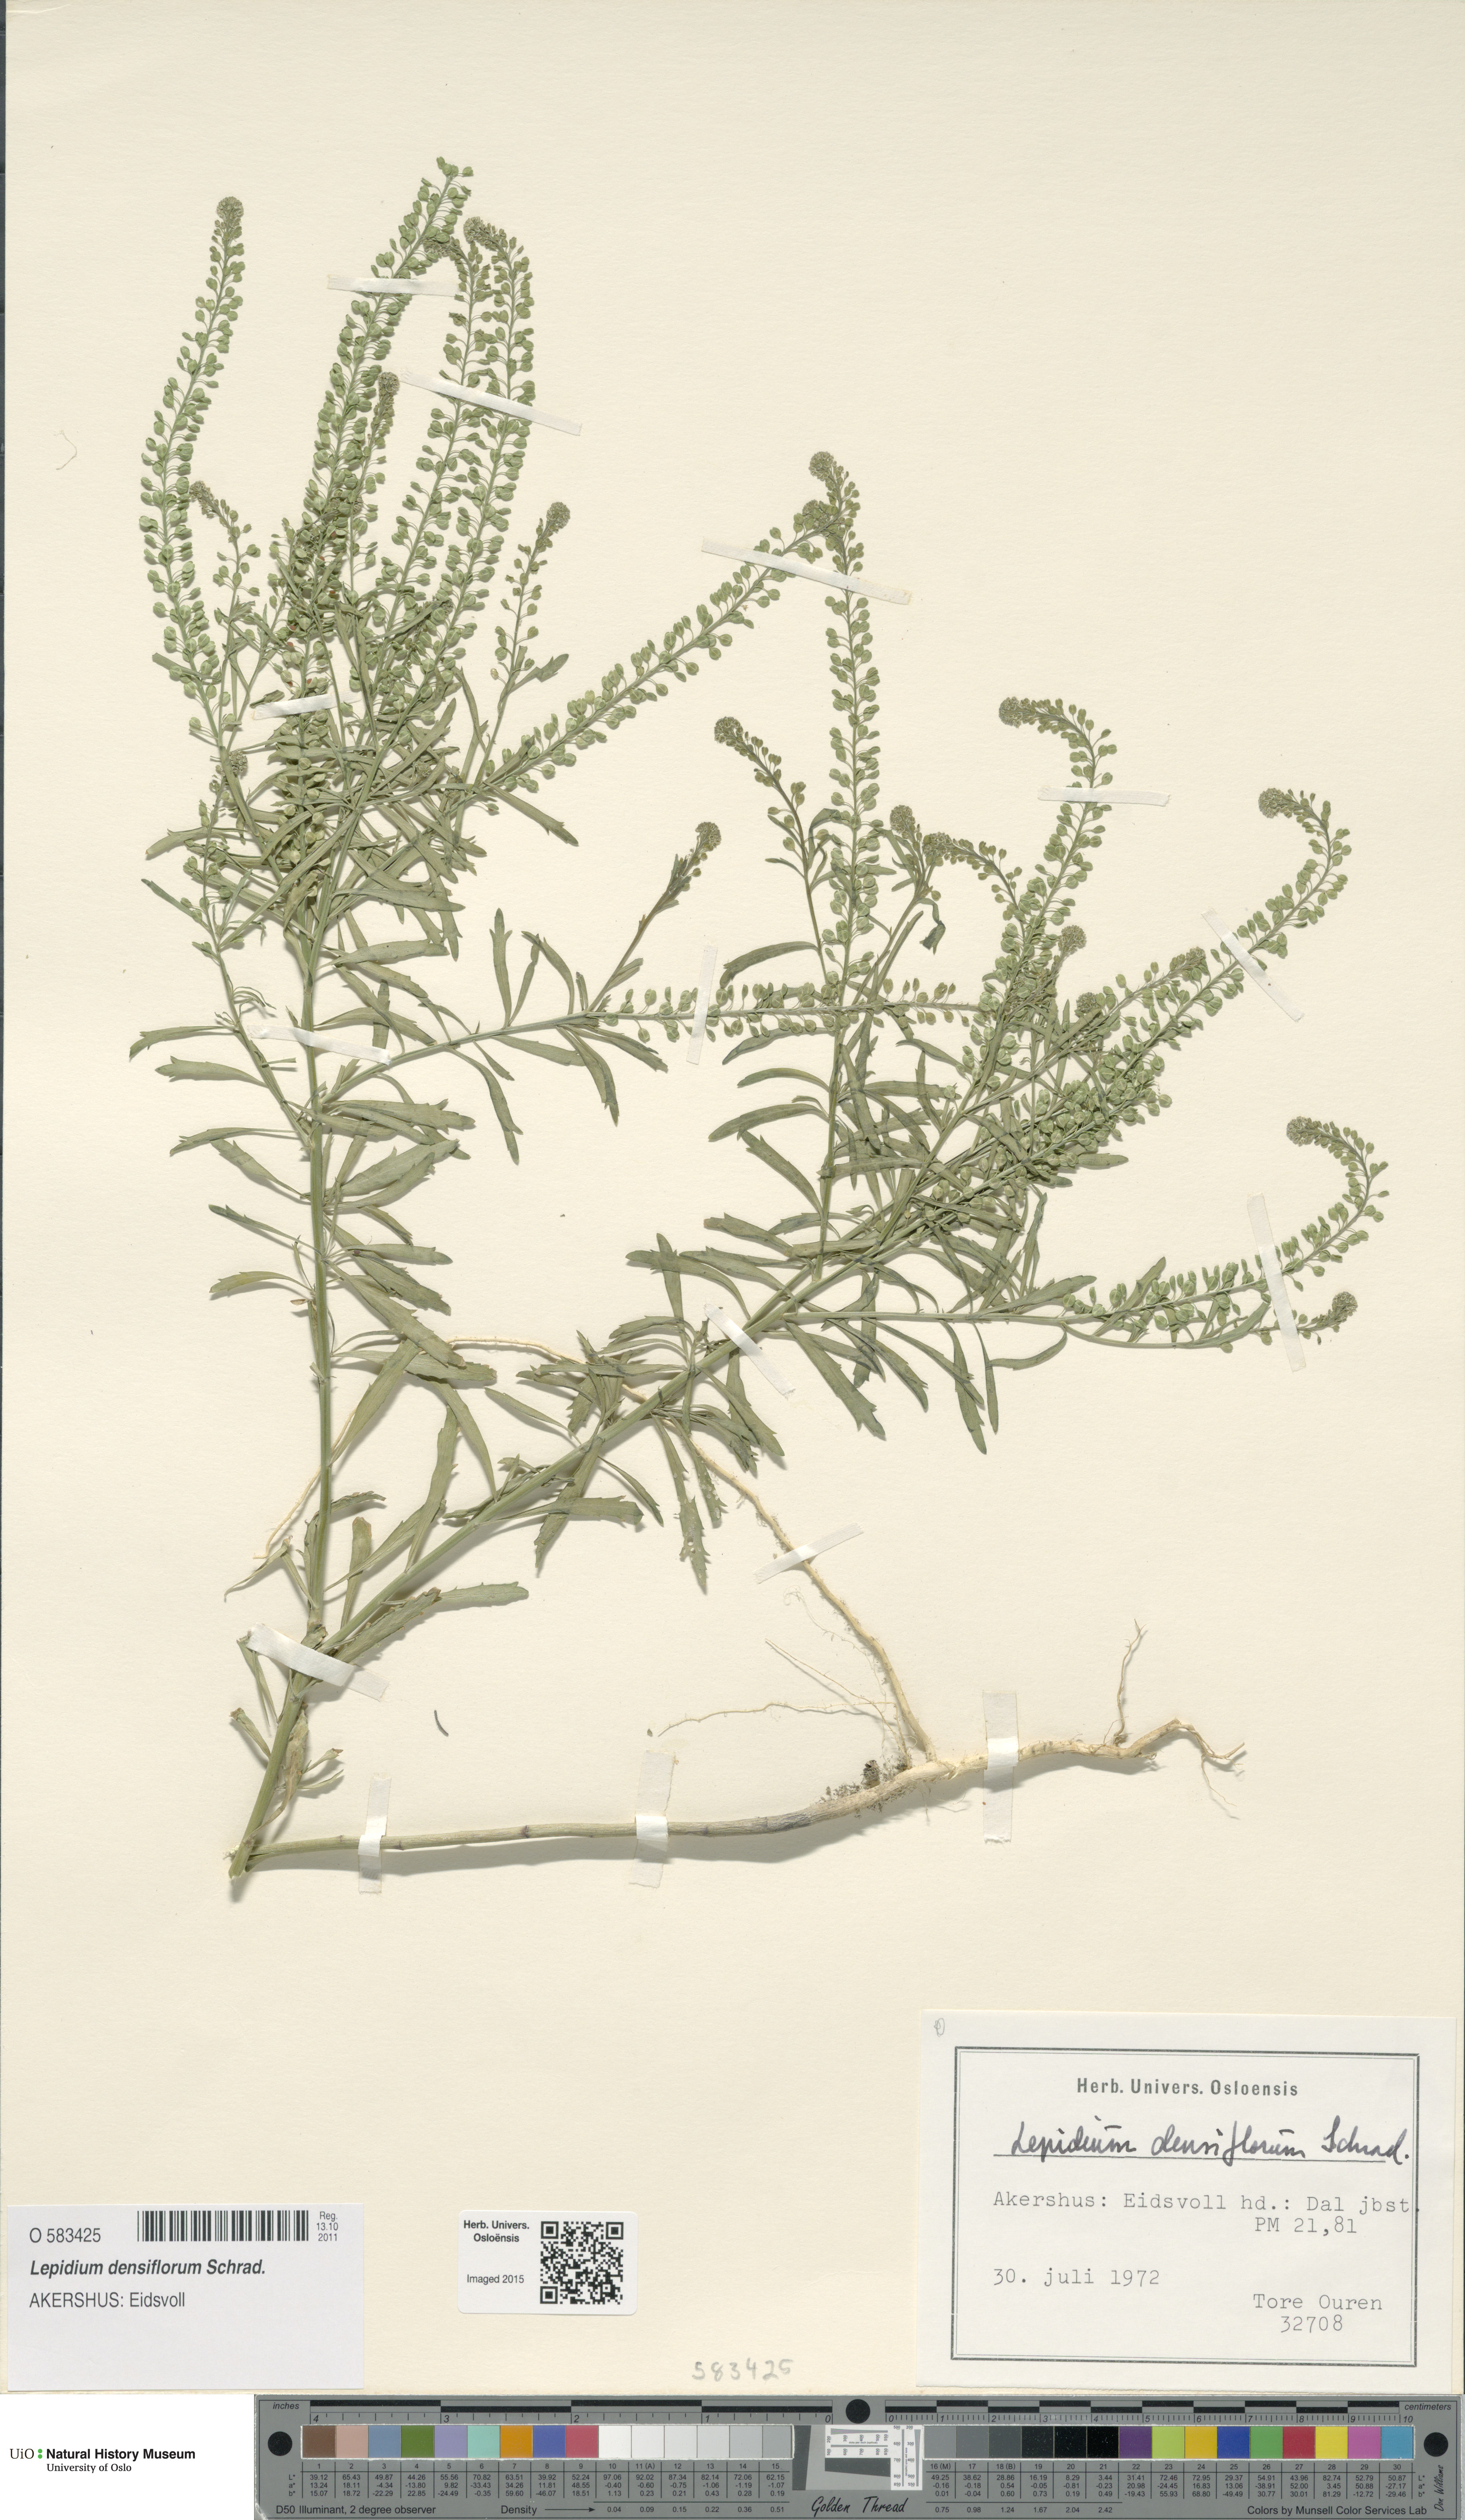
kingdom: Plantae
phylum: Tracheophyta
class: Magnoliopsida
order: Brassicales
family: Brassicaceae
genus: Lepidium
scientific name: Lepidium densiflorum
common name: Miner's pepperwort
